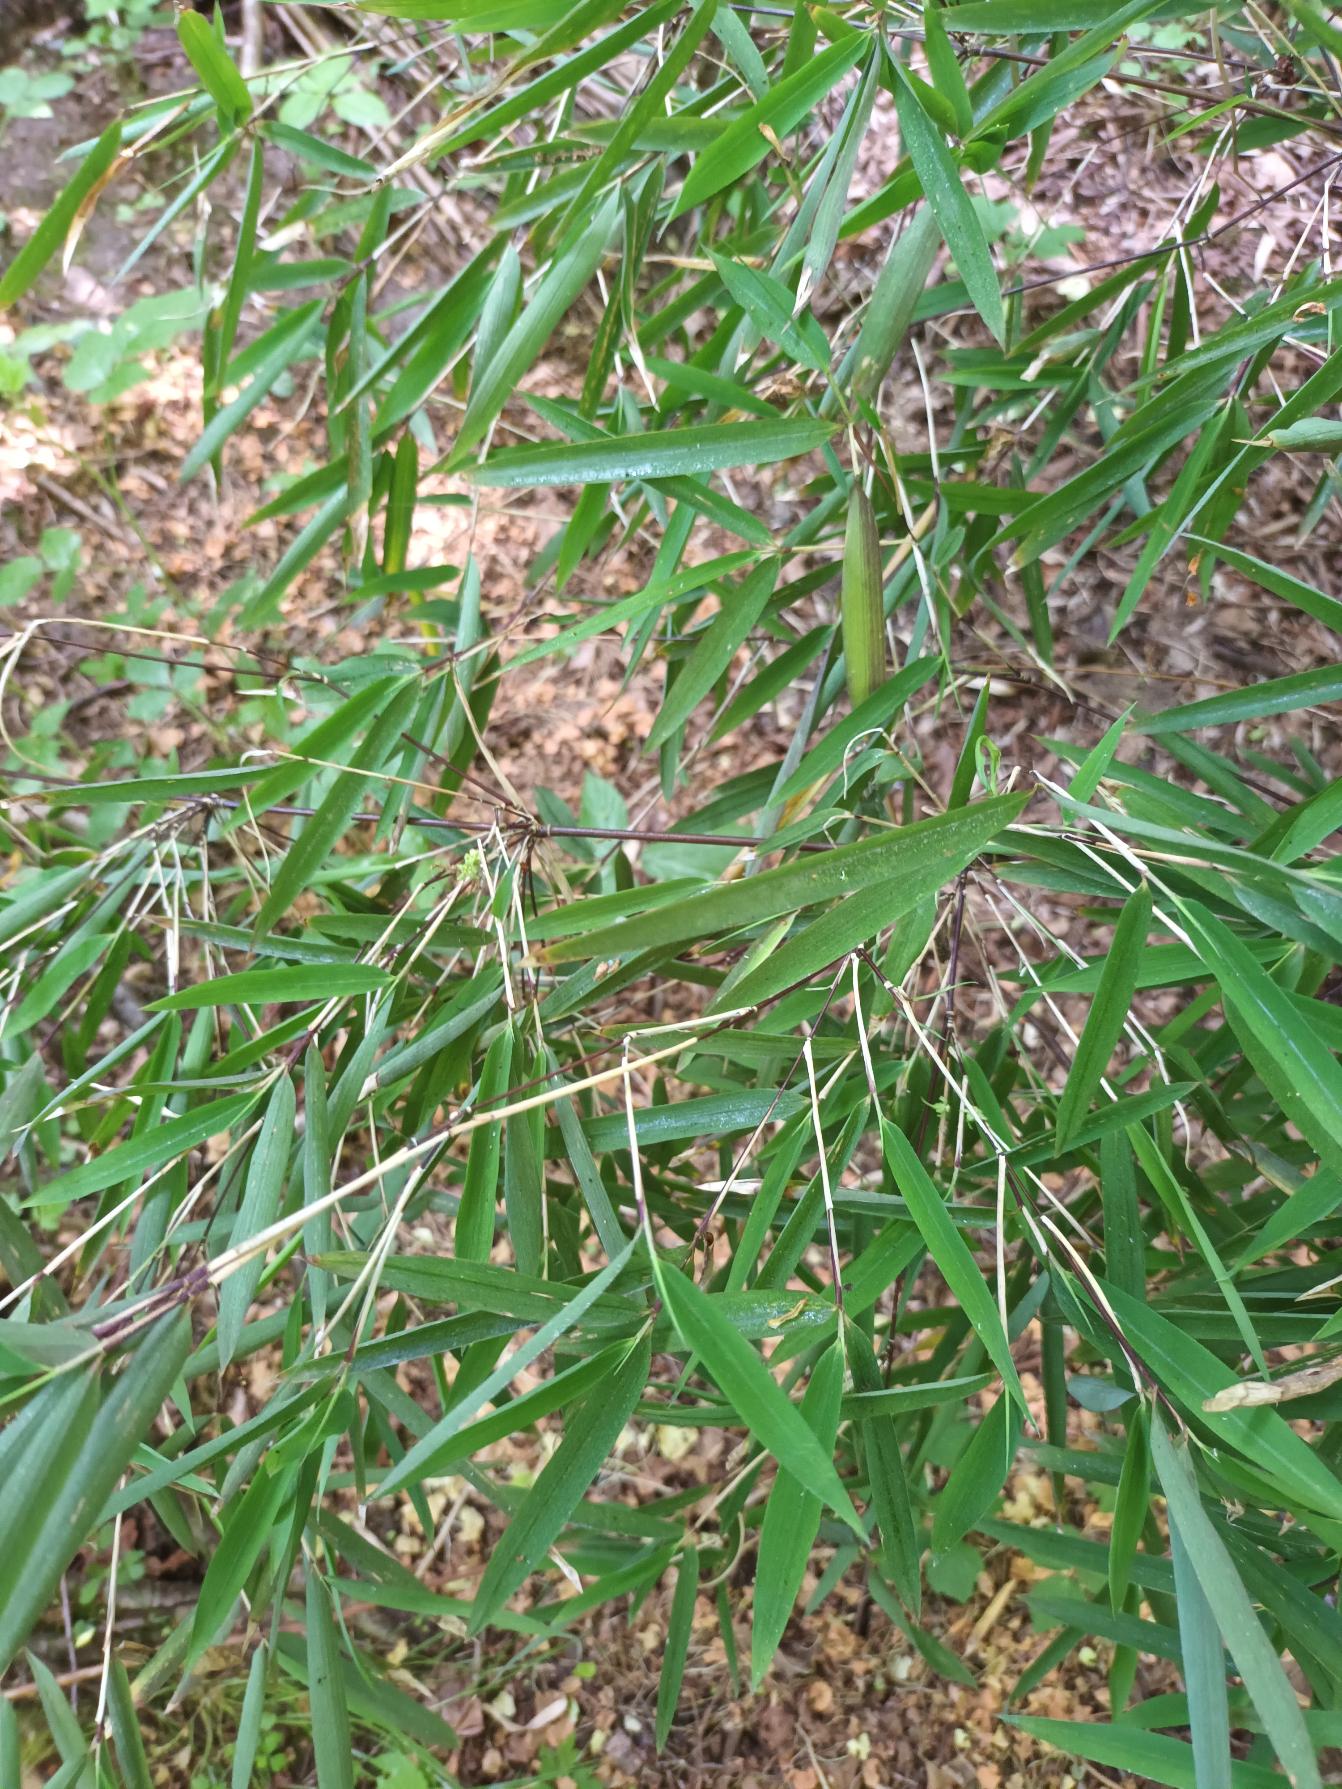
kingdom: Plantae
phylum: Tracheophyta
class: Liliopsida
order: Poales
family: Poaceae
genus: Fargesia
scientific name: Fargesia spathacea
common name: Sort bambus
